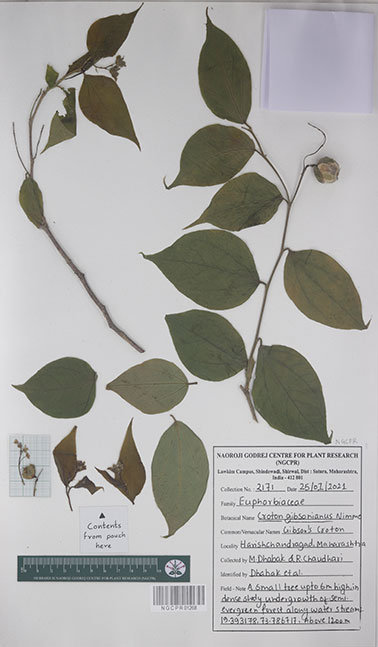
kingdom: Plantae
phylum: Tracheophyta
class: Magnoliopsida
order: Malpighiales
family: Euphorbiaceae
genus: Croton
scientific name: Croton gibsonianus
